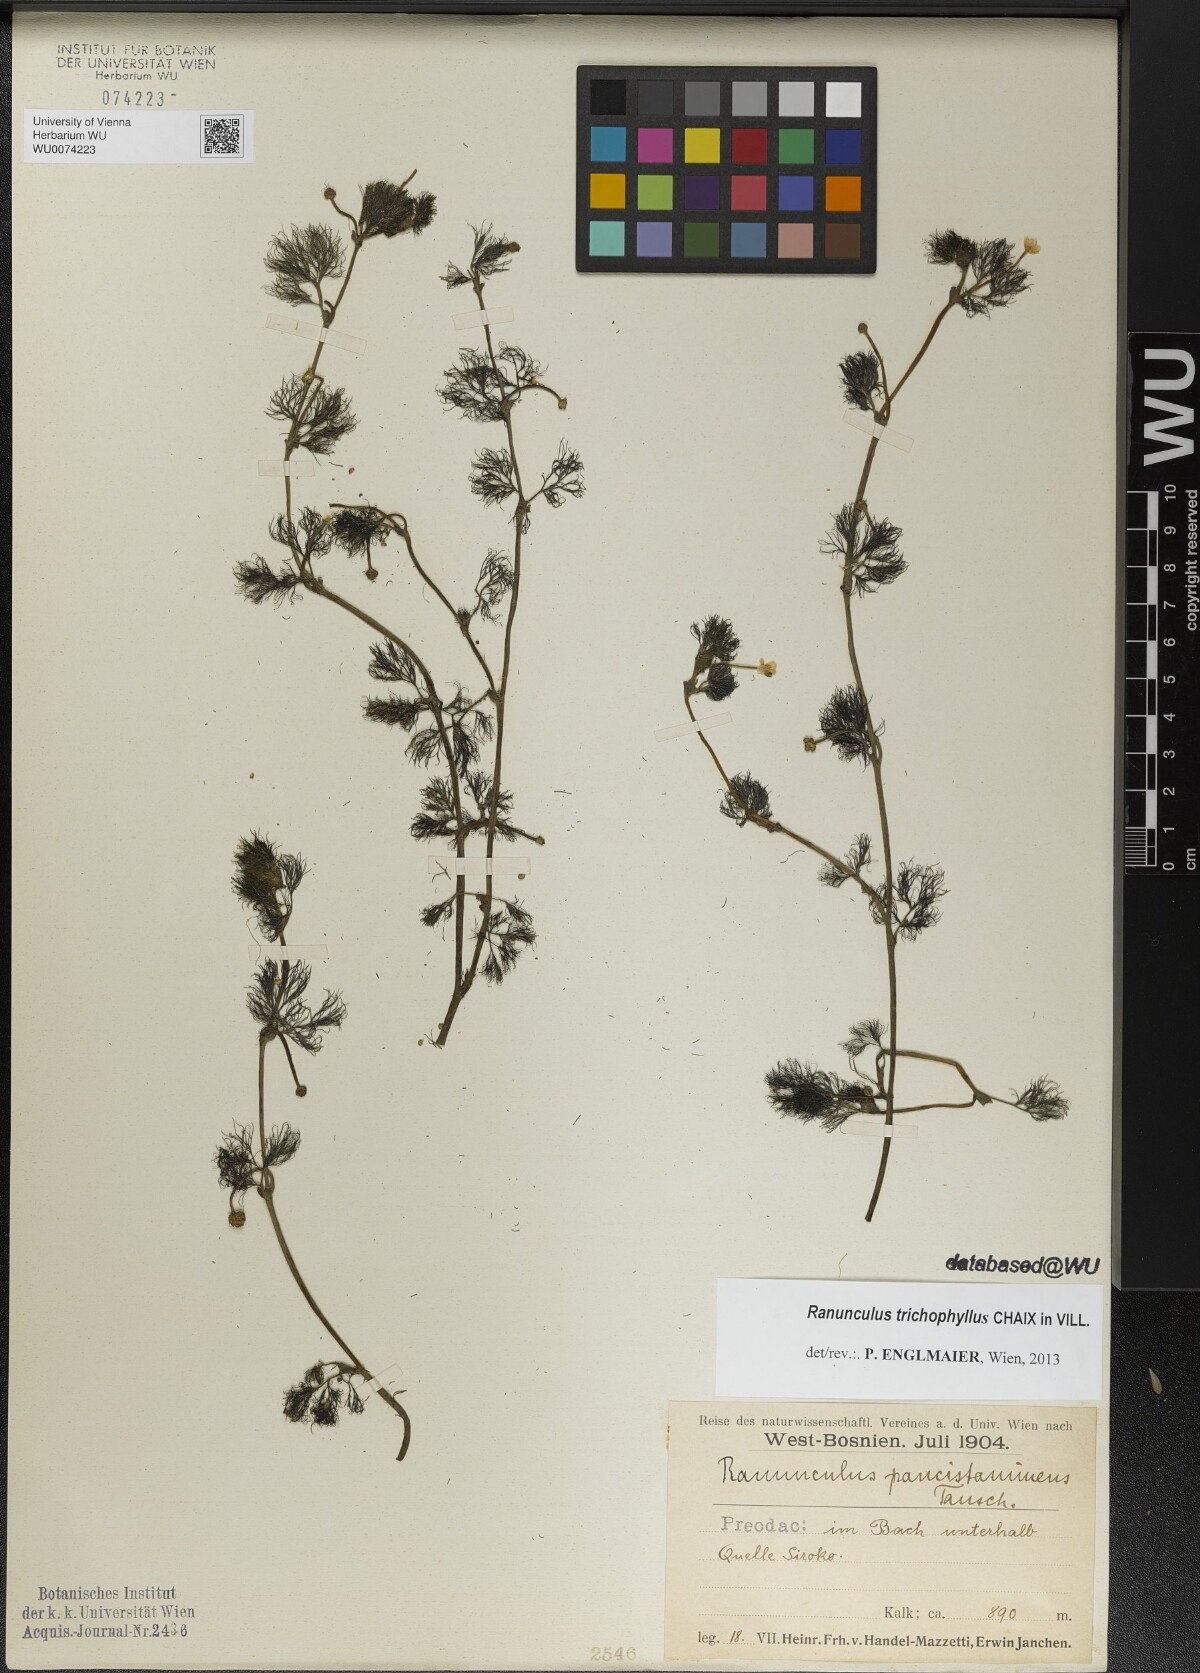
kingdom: Plantae
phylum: Tracheophyta
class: Magnoliopsida
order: Ranunculales
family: Ranunculaceae
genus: Ranunculus
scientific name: Ranunculus trichophyllus
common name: Thread-leaved water-crowfoot
